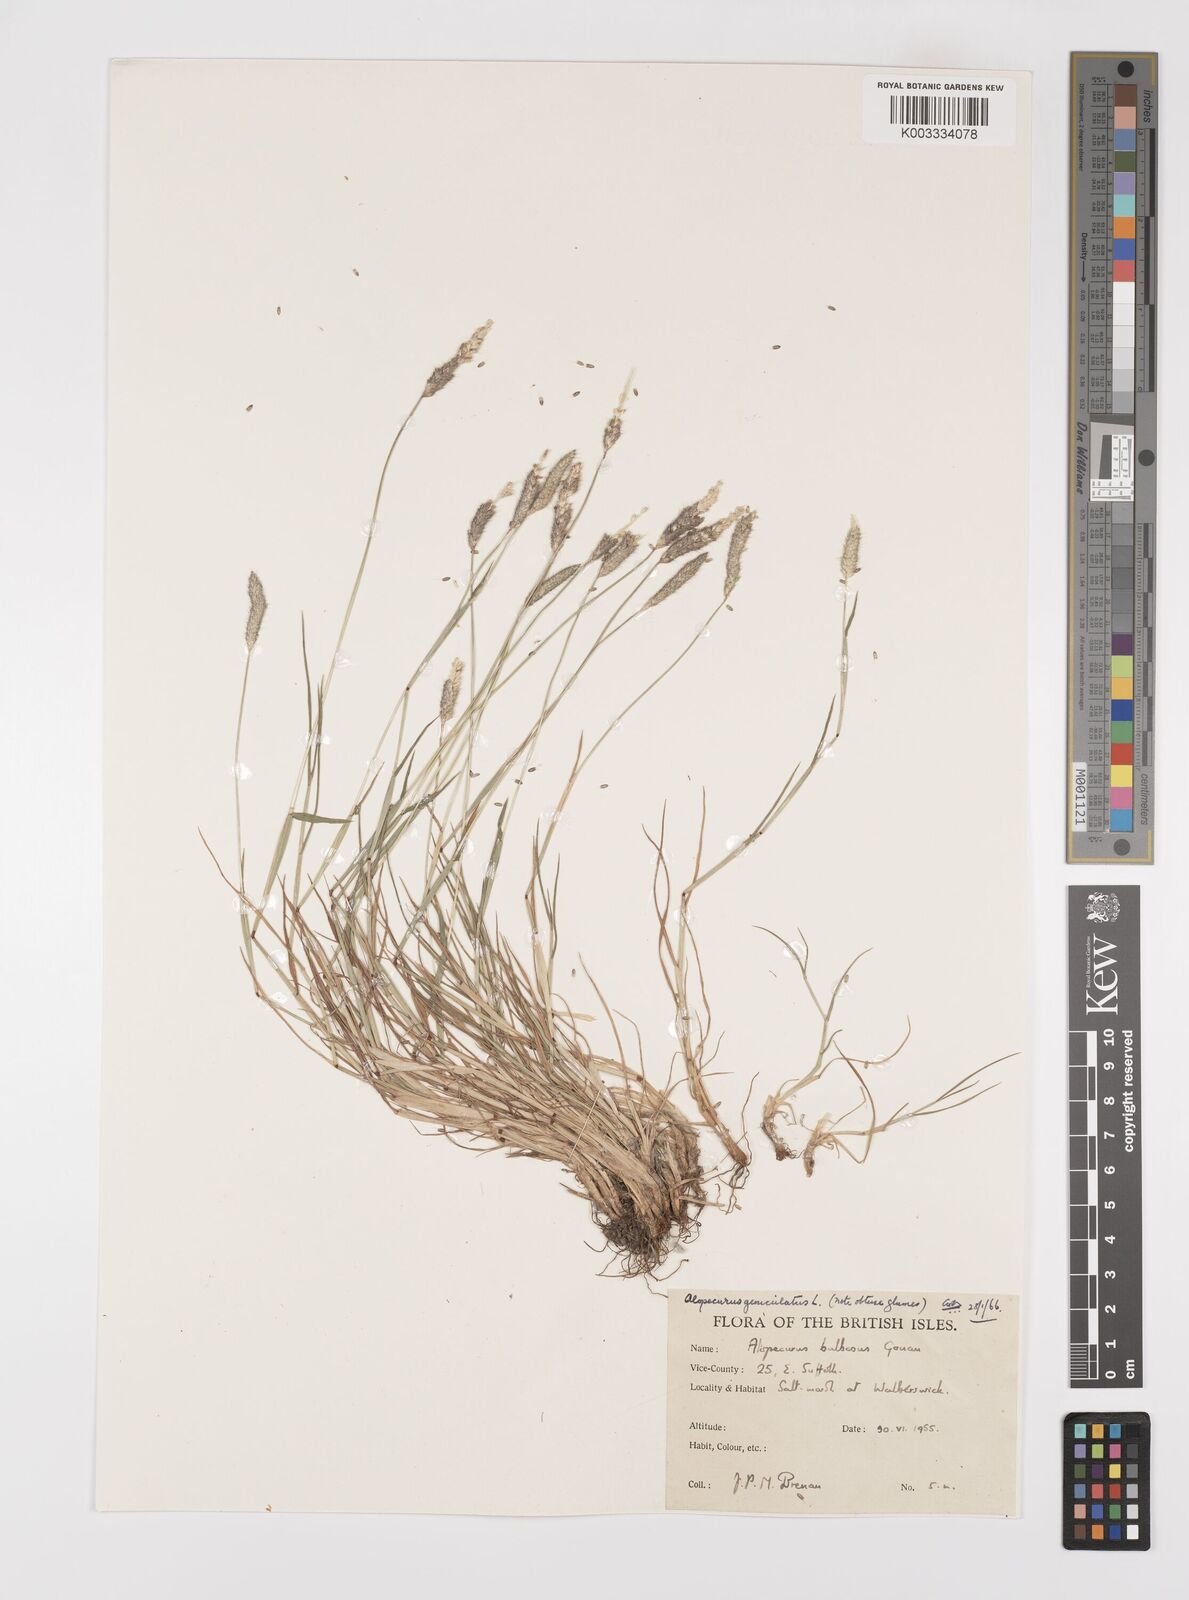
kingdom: Plantae
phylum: Tracheophyta
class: Liliopsida
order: Poales
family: Poaceae
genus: Alopecurus
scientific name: Alopecurus geniculatus
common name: Water foxtail
